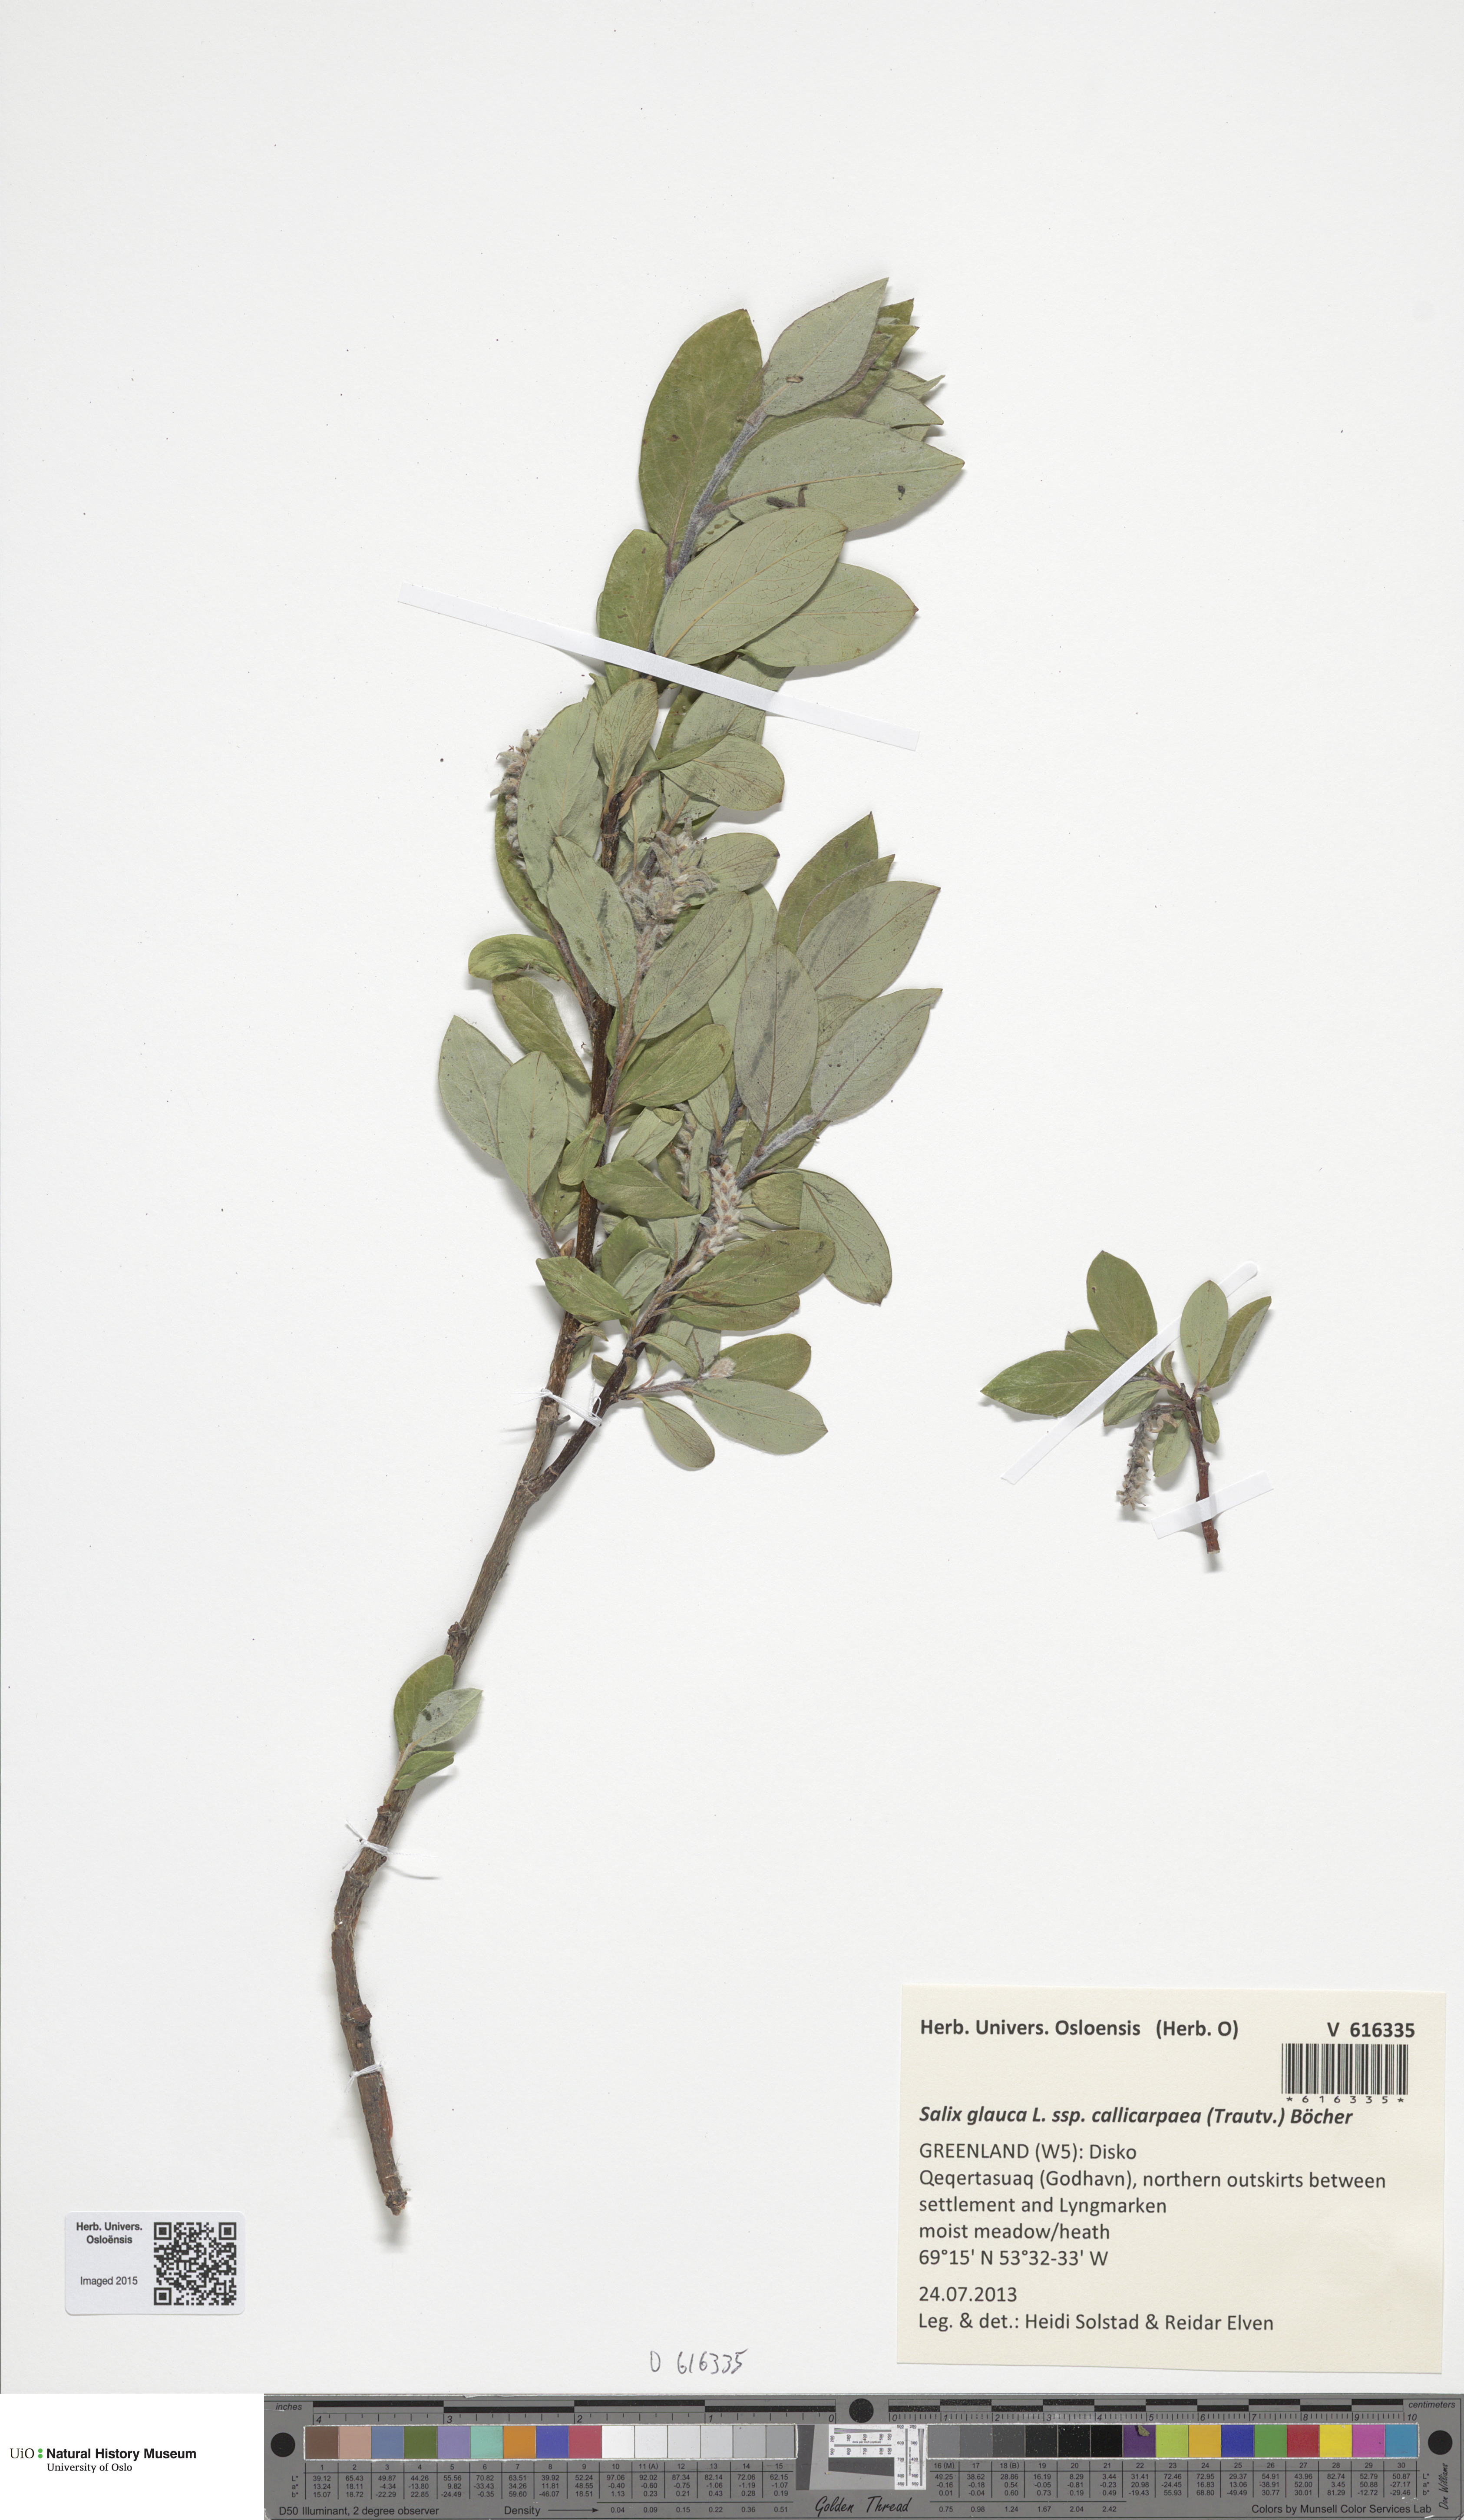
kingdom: Plantae
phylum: Tracheophyta
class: Magnoliopsida
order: Malpighiales
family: Salicaceae
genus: Salix
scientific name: Salix glauca
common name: Glaucous willow
